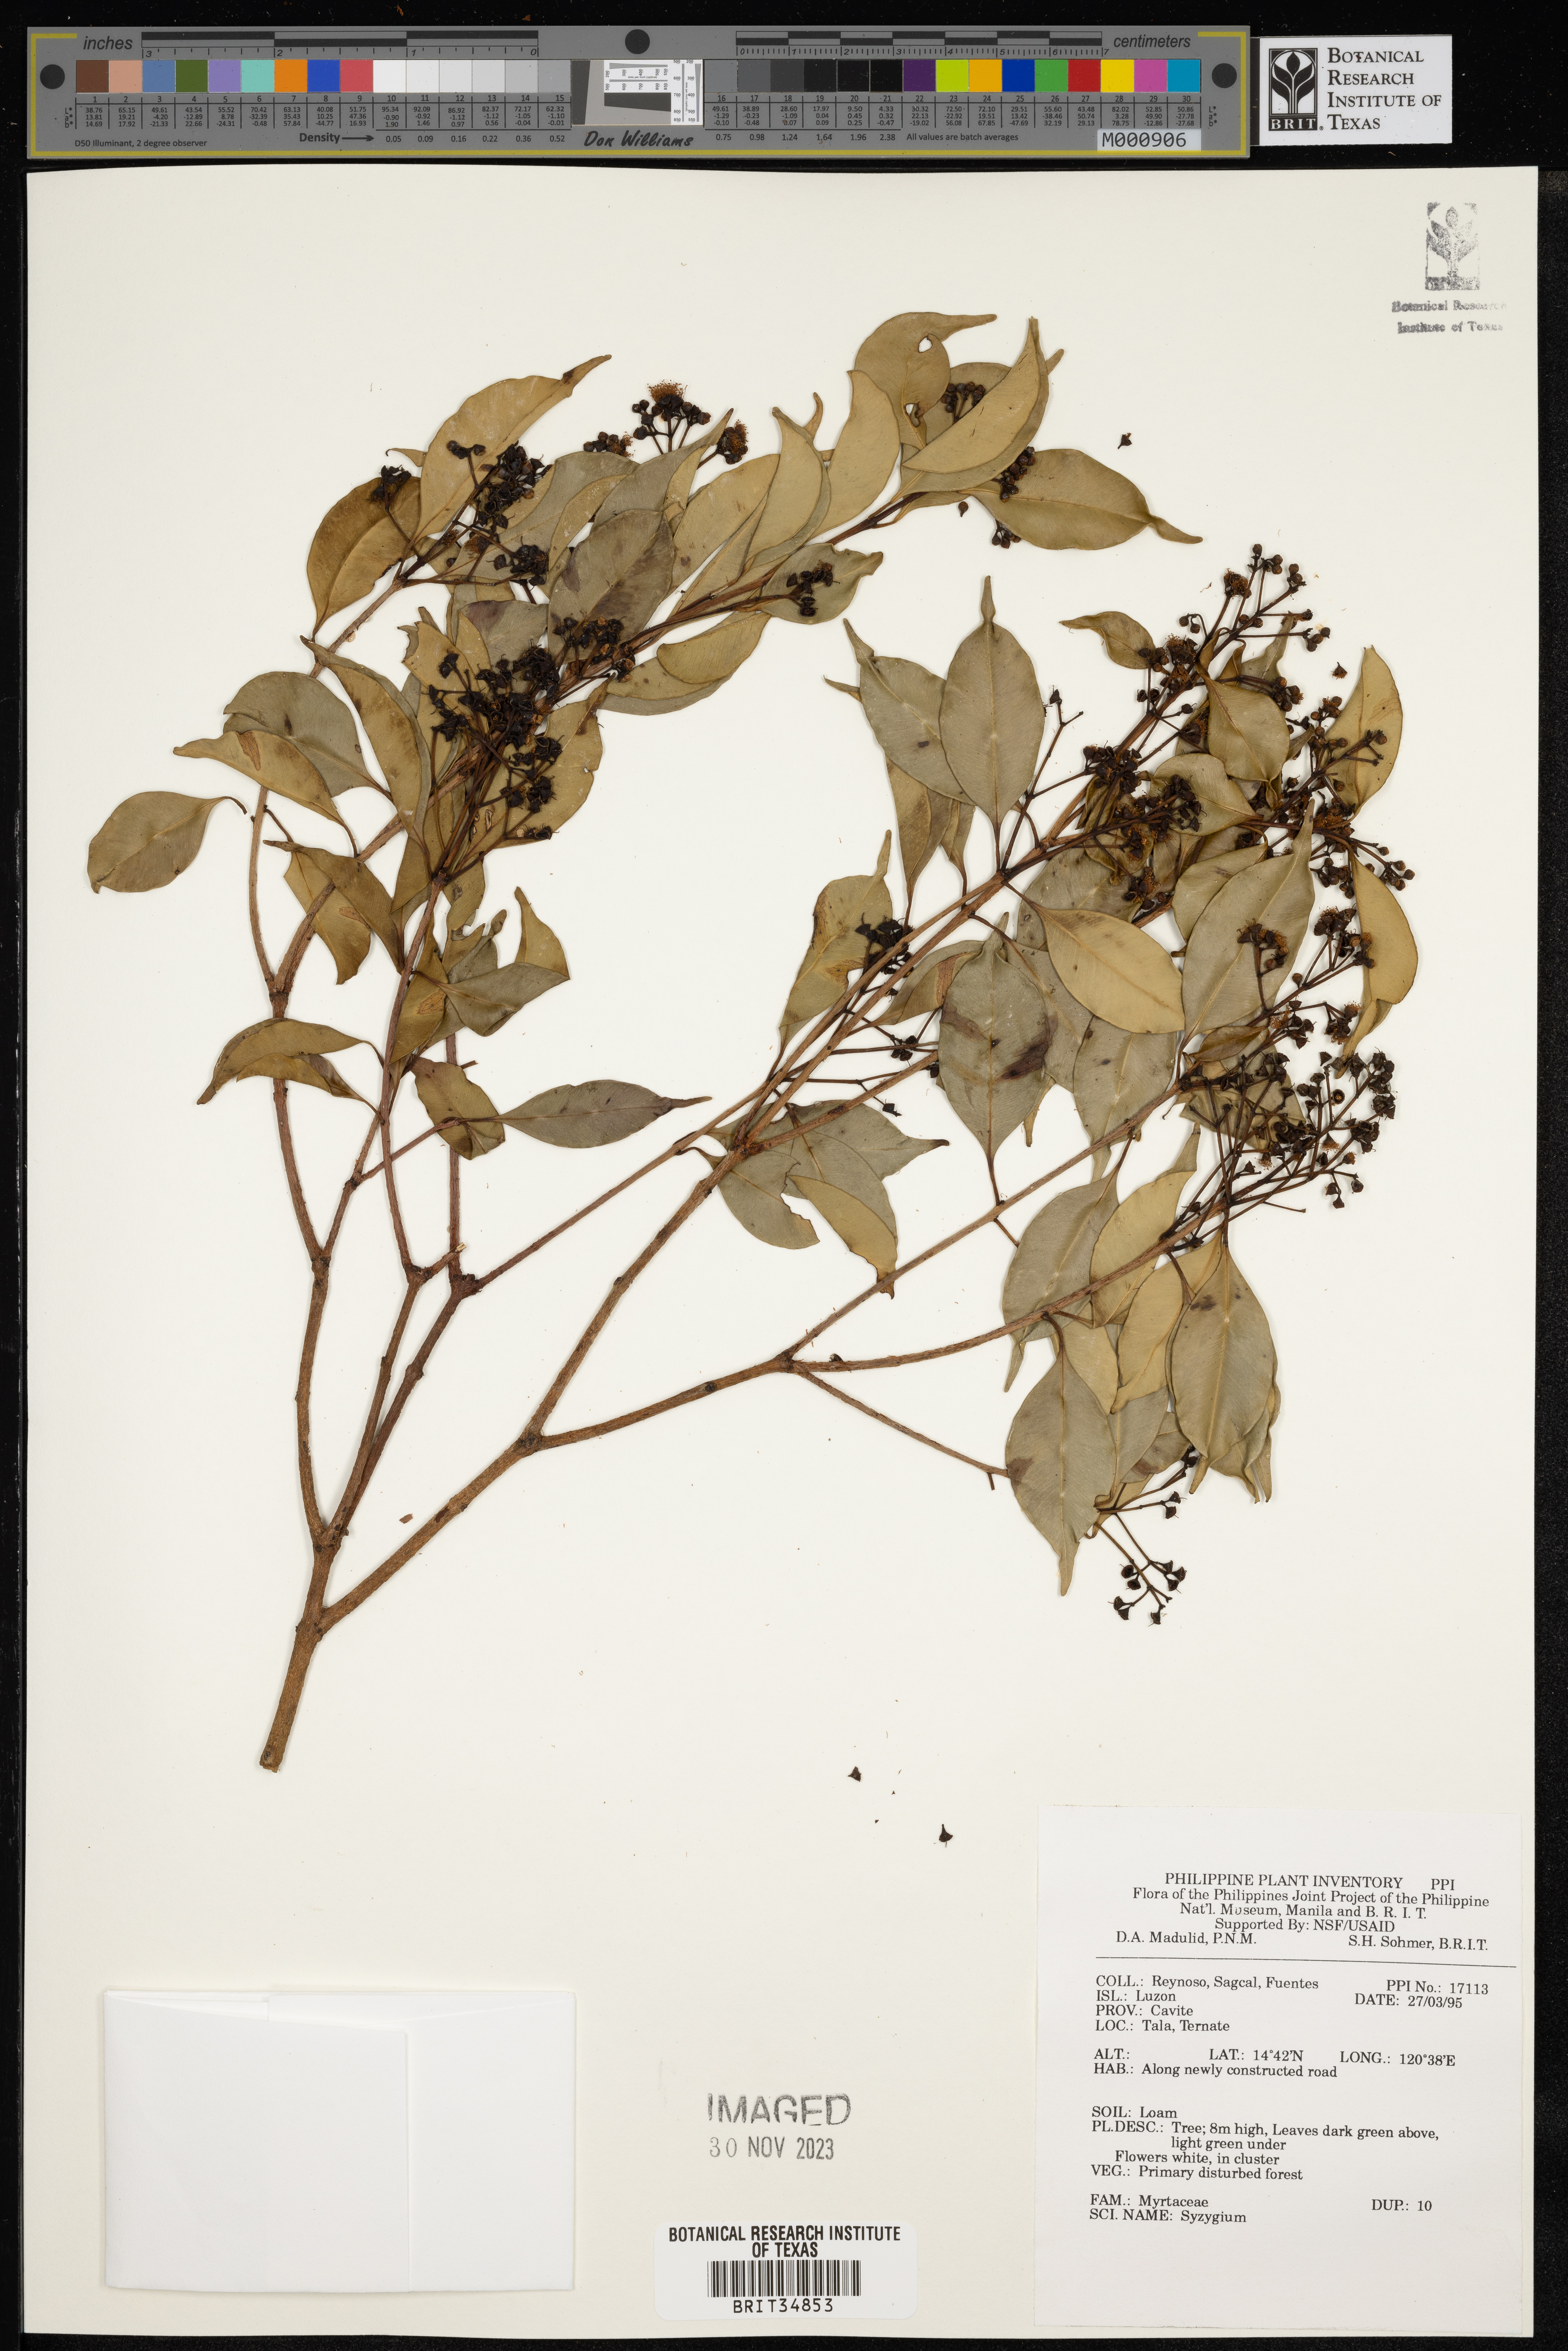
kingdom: Plantae
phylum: Tracheophyta
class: Magnoliopsida
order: Myrtales
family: Myrtaceae
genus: Syzygium
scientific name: Syzygium
